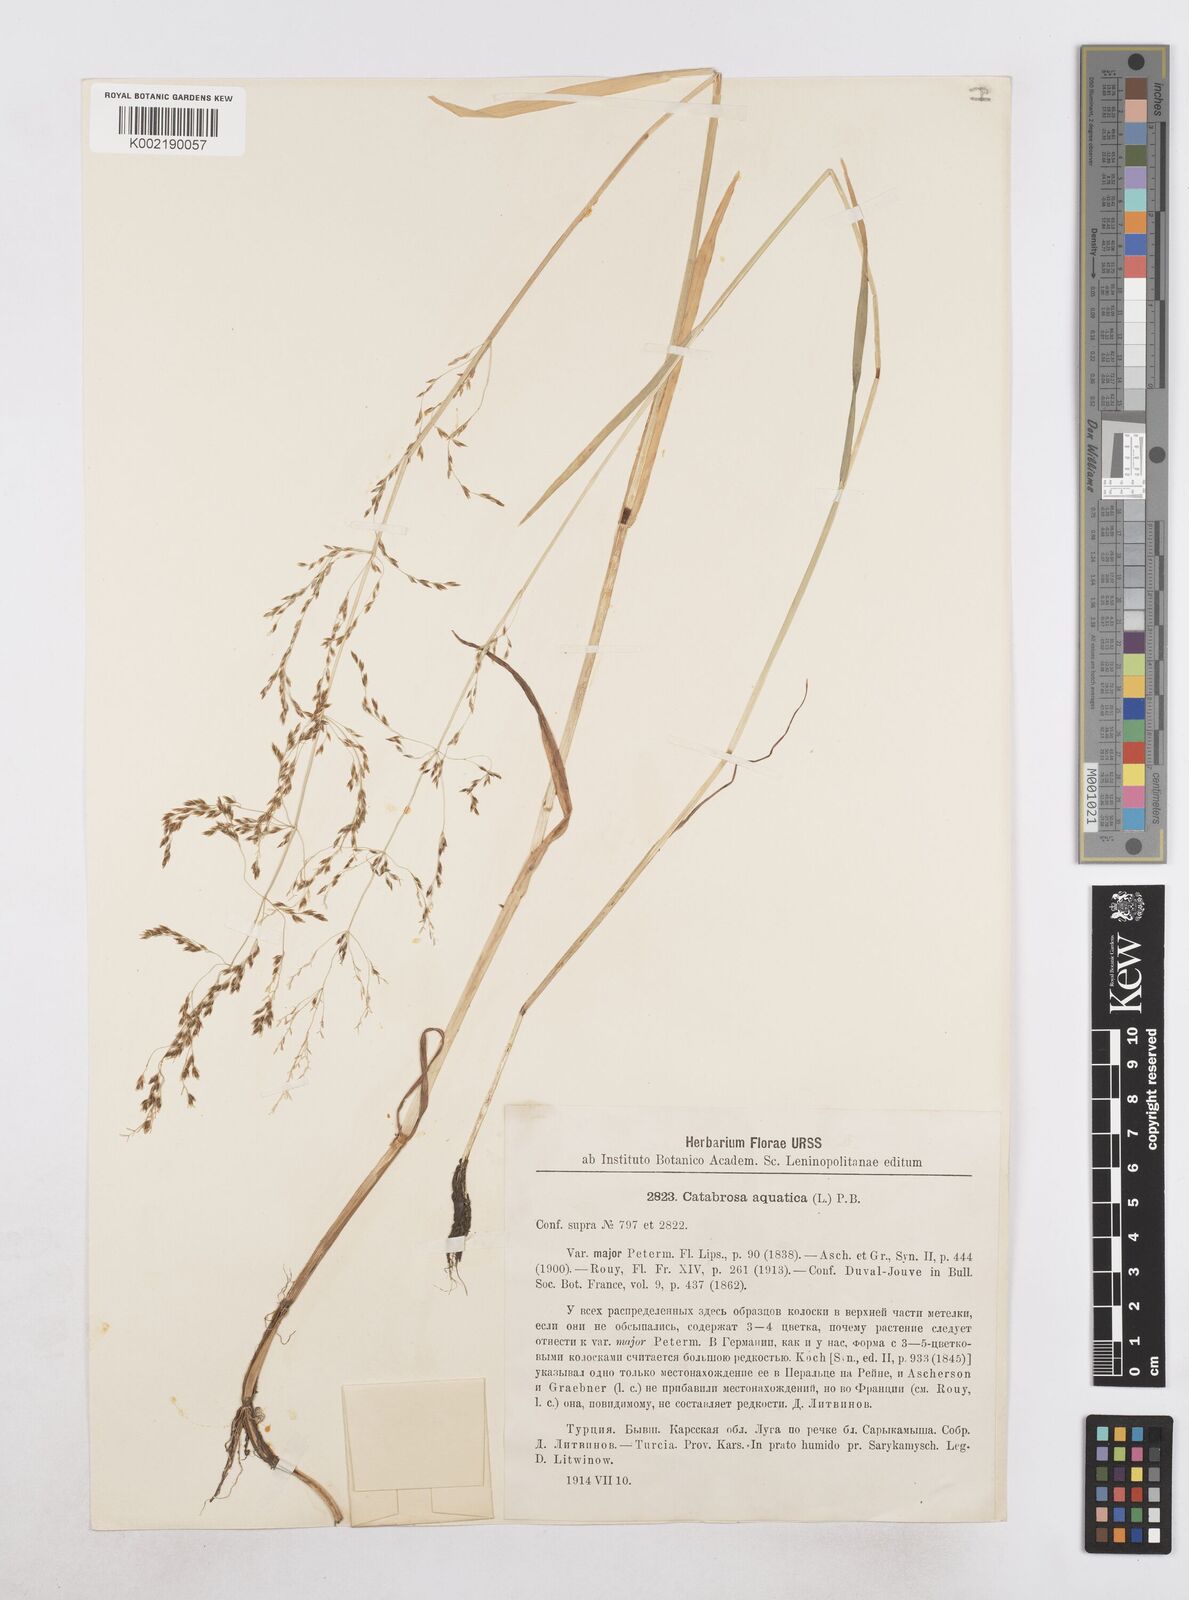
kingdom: Plantae
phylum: Tracheophyta
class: Liliopsida
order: Poales
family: Poaceae
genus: Catabrosa
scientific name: Catabrosa aquatica
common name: Whorl-grass
